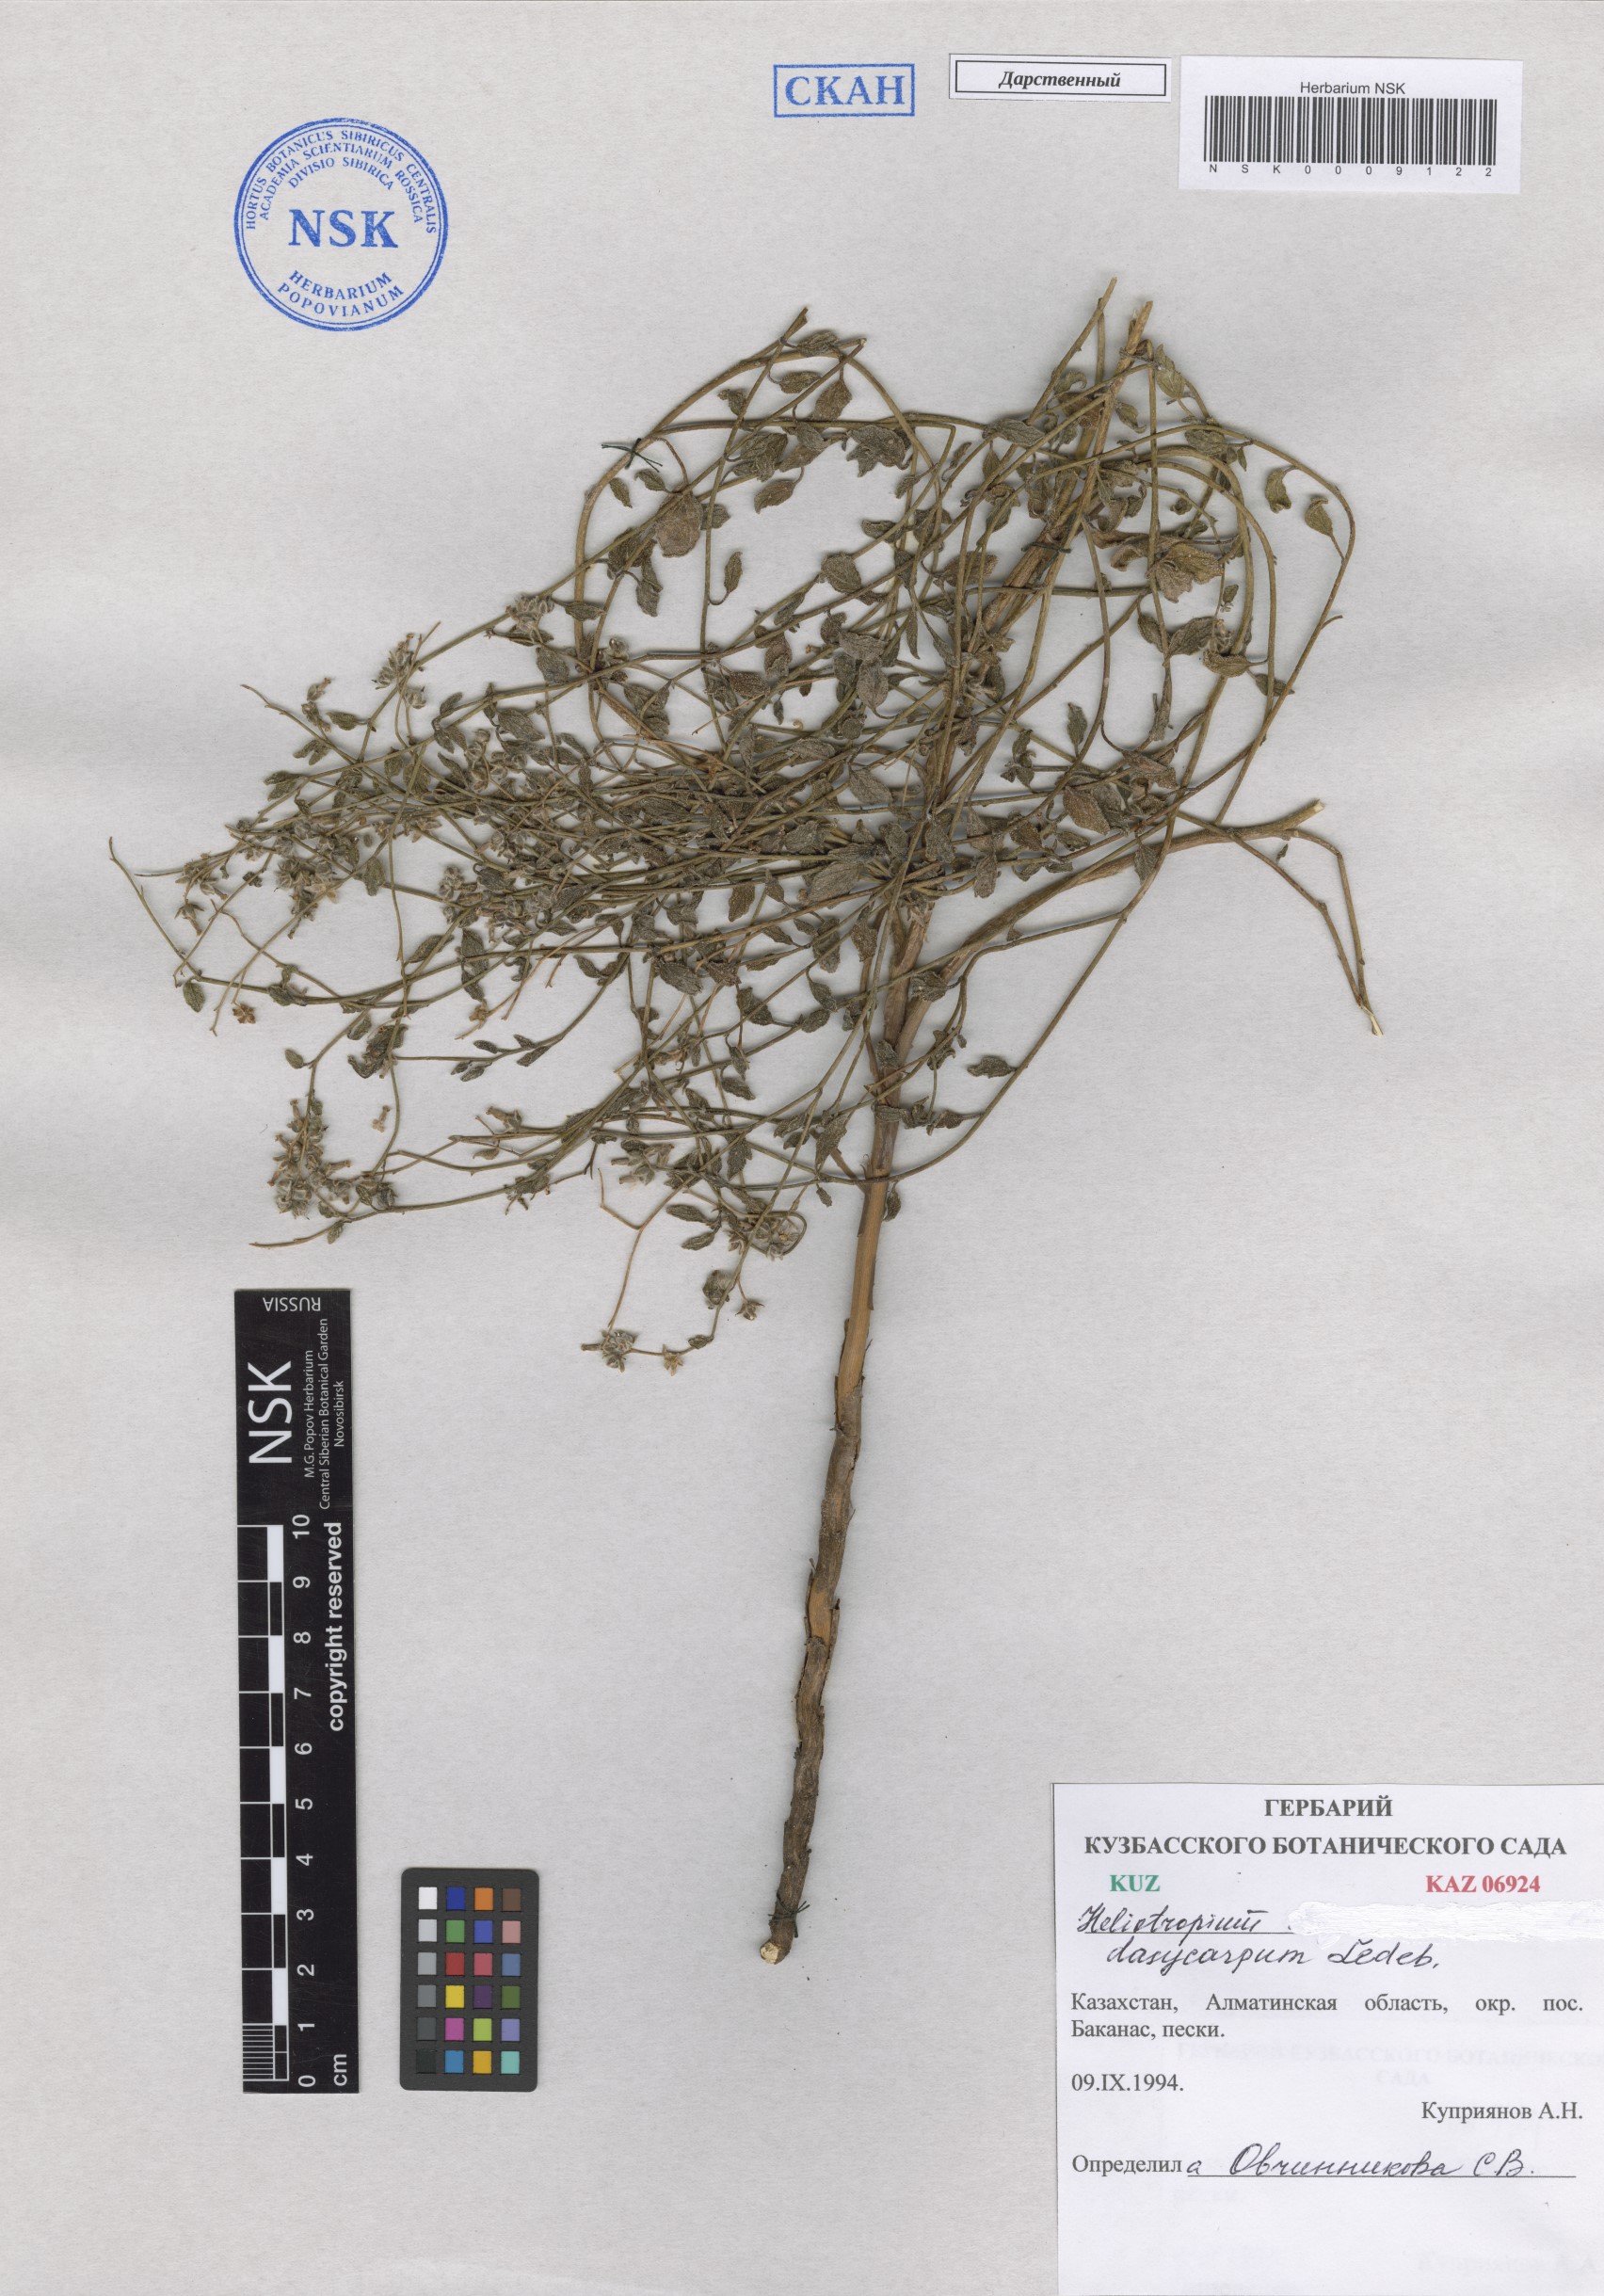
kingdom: Plantae
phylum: Tracheophyta
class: Magnoliopsida
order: Boraginales
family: Heliotropiaceae
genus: Heliotropium
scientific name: Heliotropium dasycarpum
